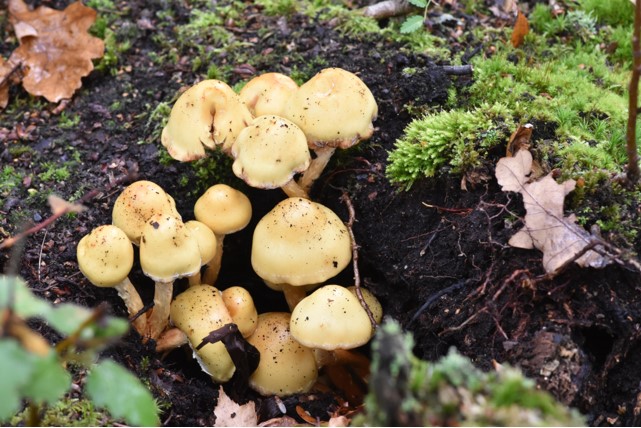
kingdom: Fungi
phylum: Basidiomycota
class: Agaricomycetes
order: Agaricales
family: Hymenogastraceae
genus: Flammula
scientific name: Flammula alnicola
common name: elle-skælhat
